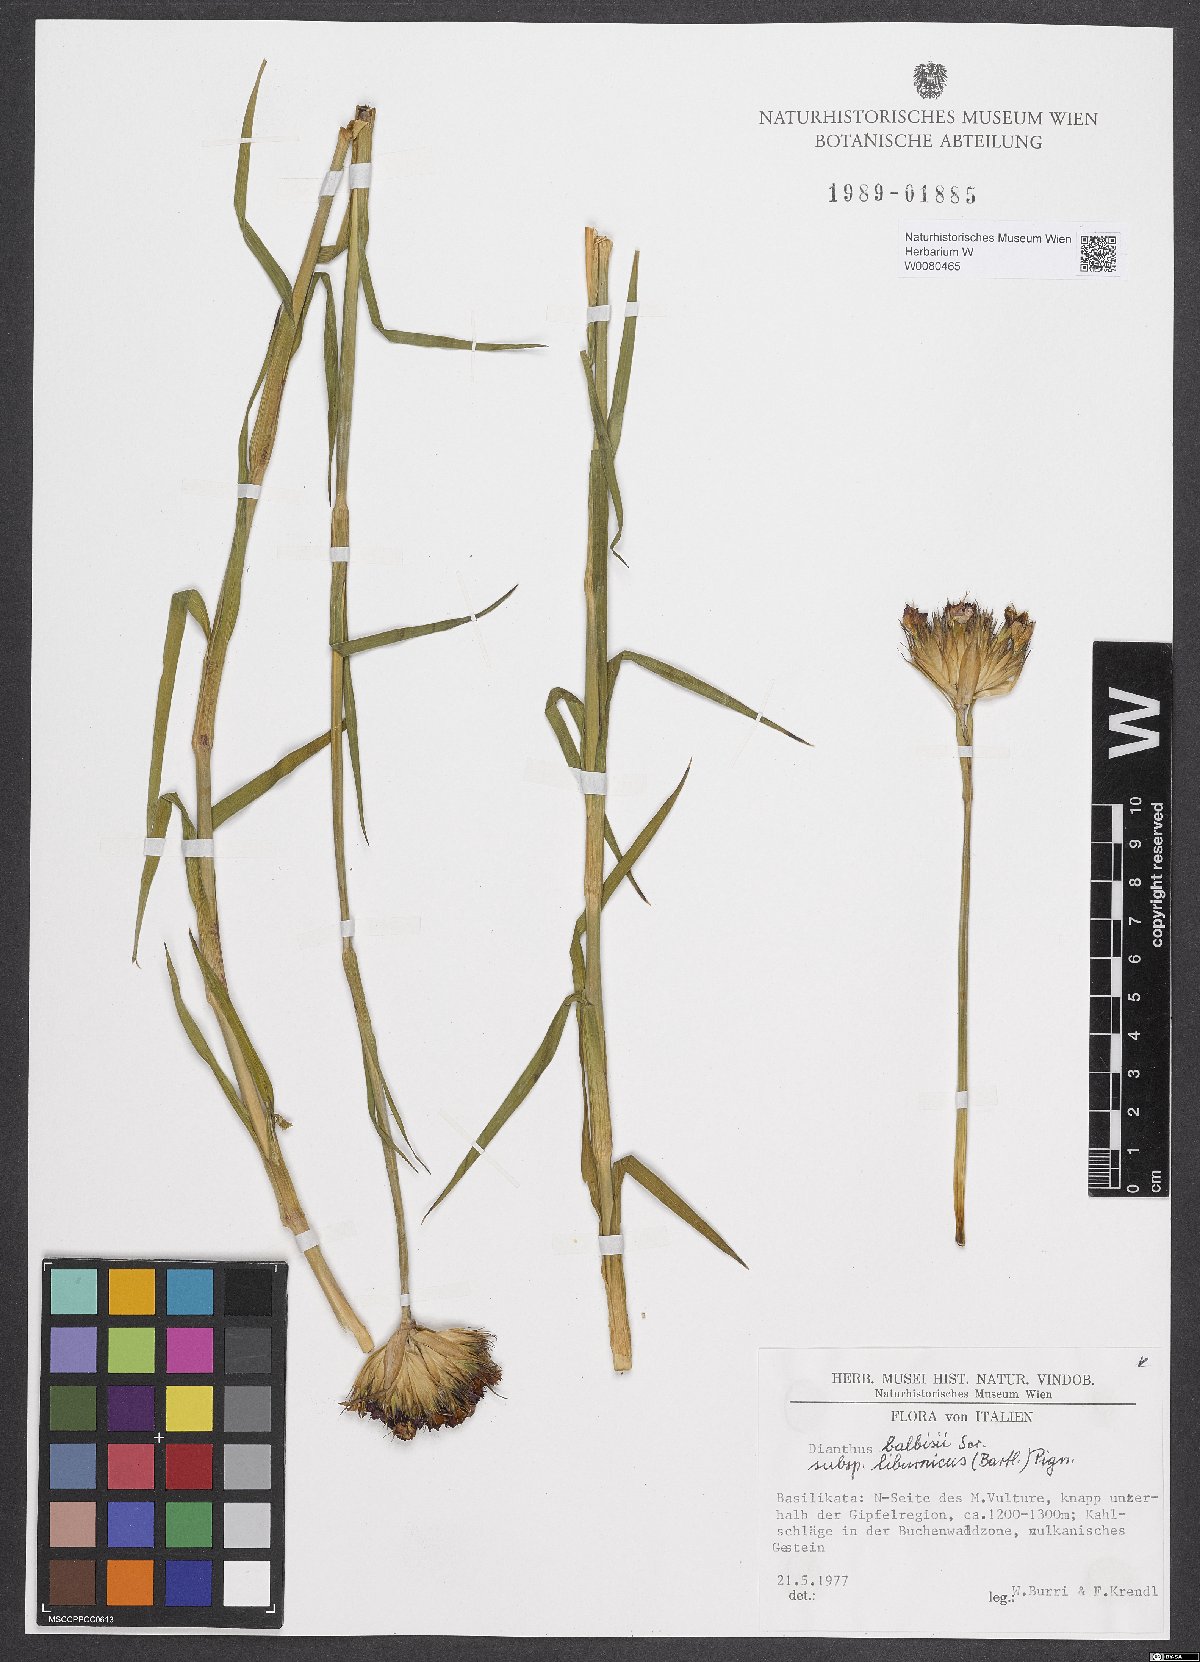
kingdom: Plantae
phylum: Tracheophyta
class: Magnoliopsida
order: Caryophyllales
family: Caryophyllaceae
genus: Dianthus
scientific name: Dianthus balbisii
